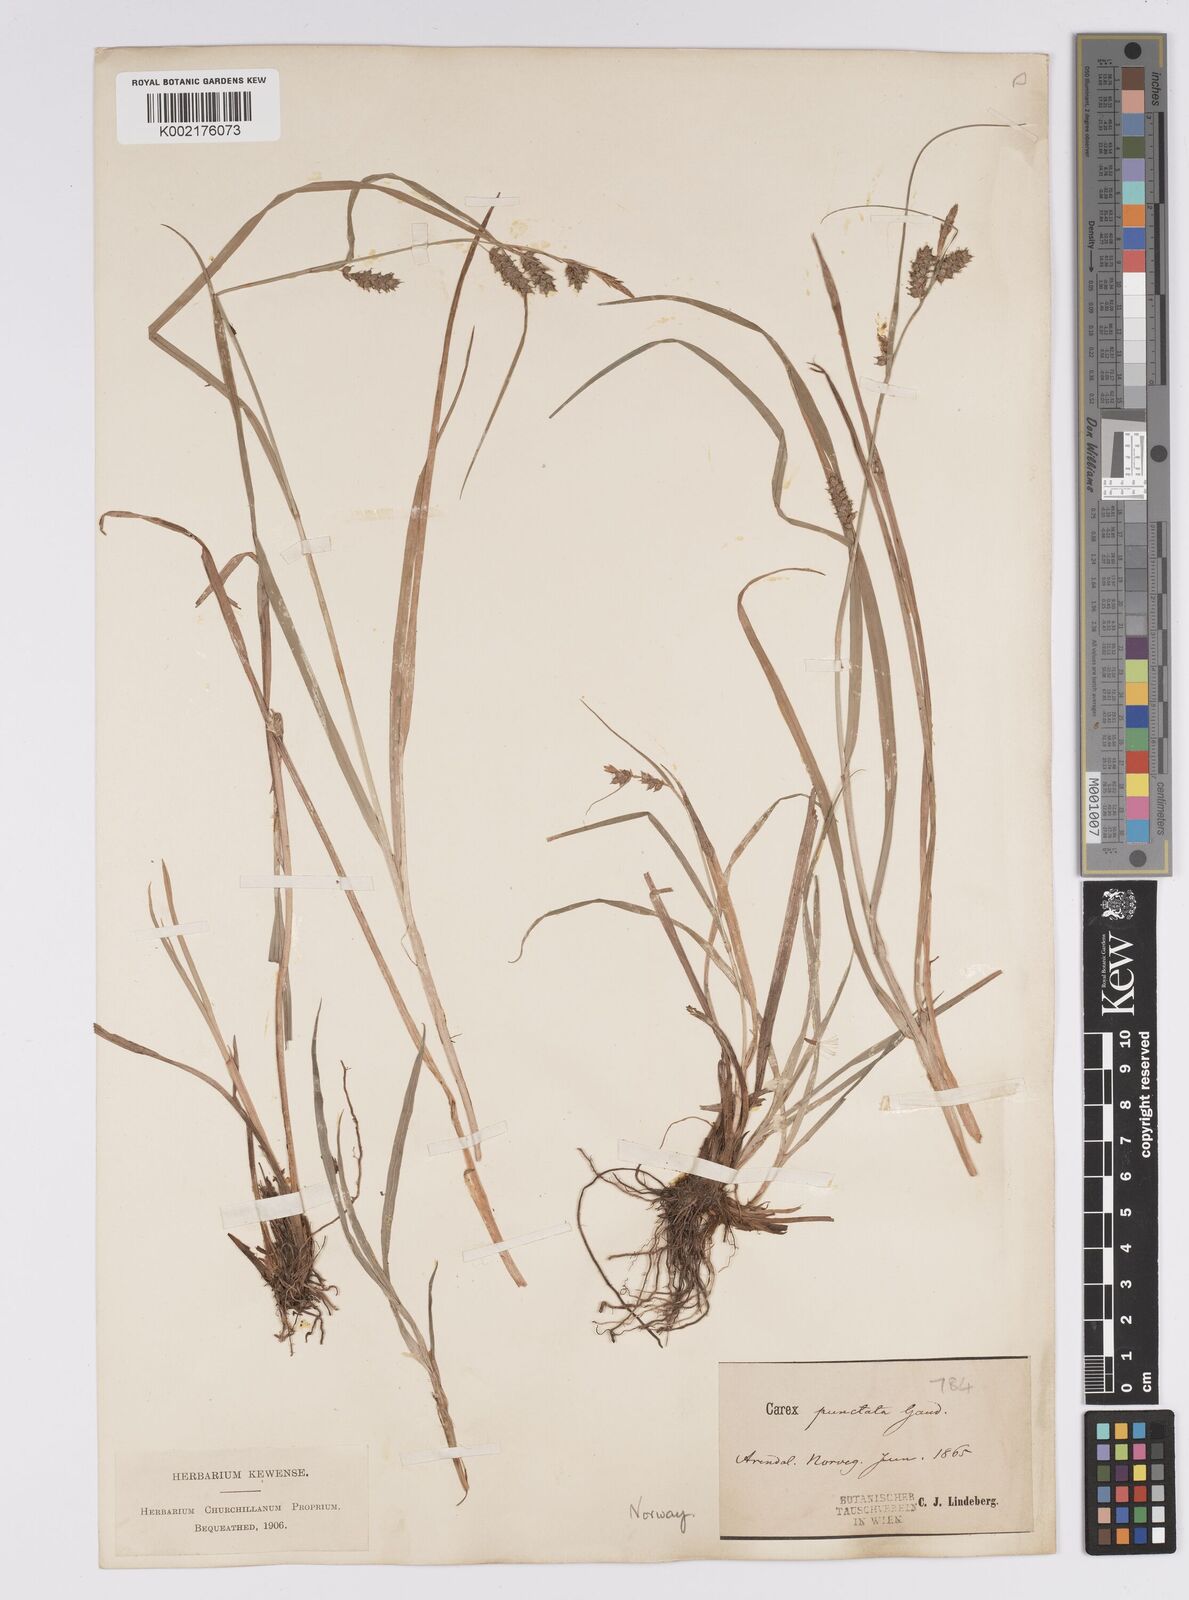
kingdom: Plantae
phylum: Tracheophyta
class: Liliopsida
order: Poales
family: Cyperaceae
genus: Carex
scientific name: Carex punctata
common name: Dotted sedge
